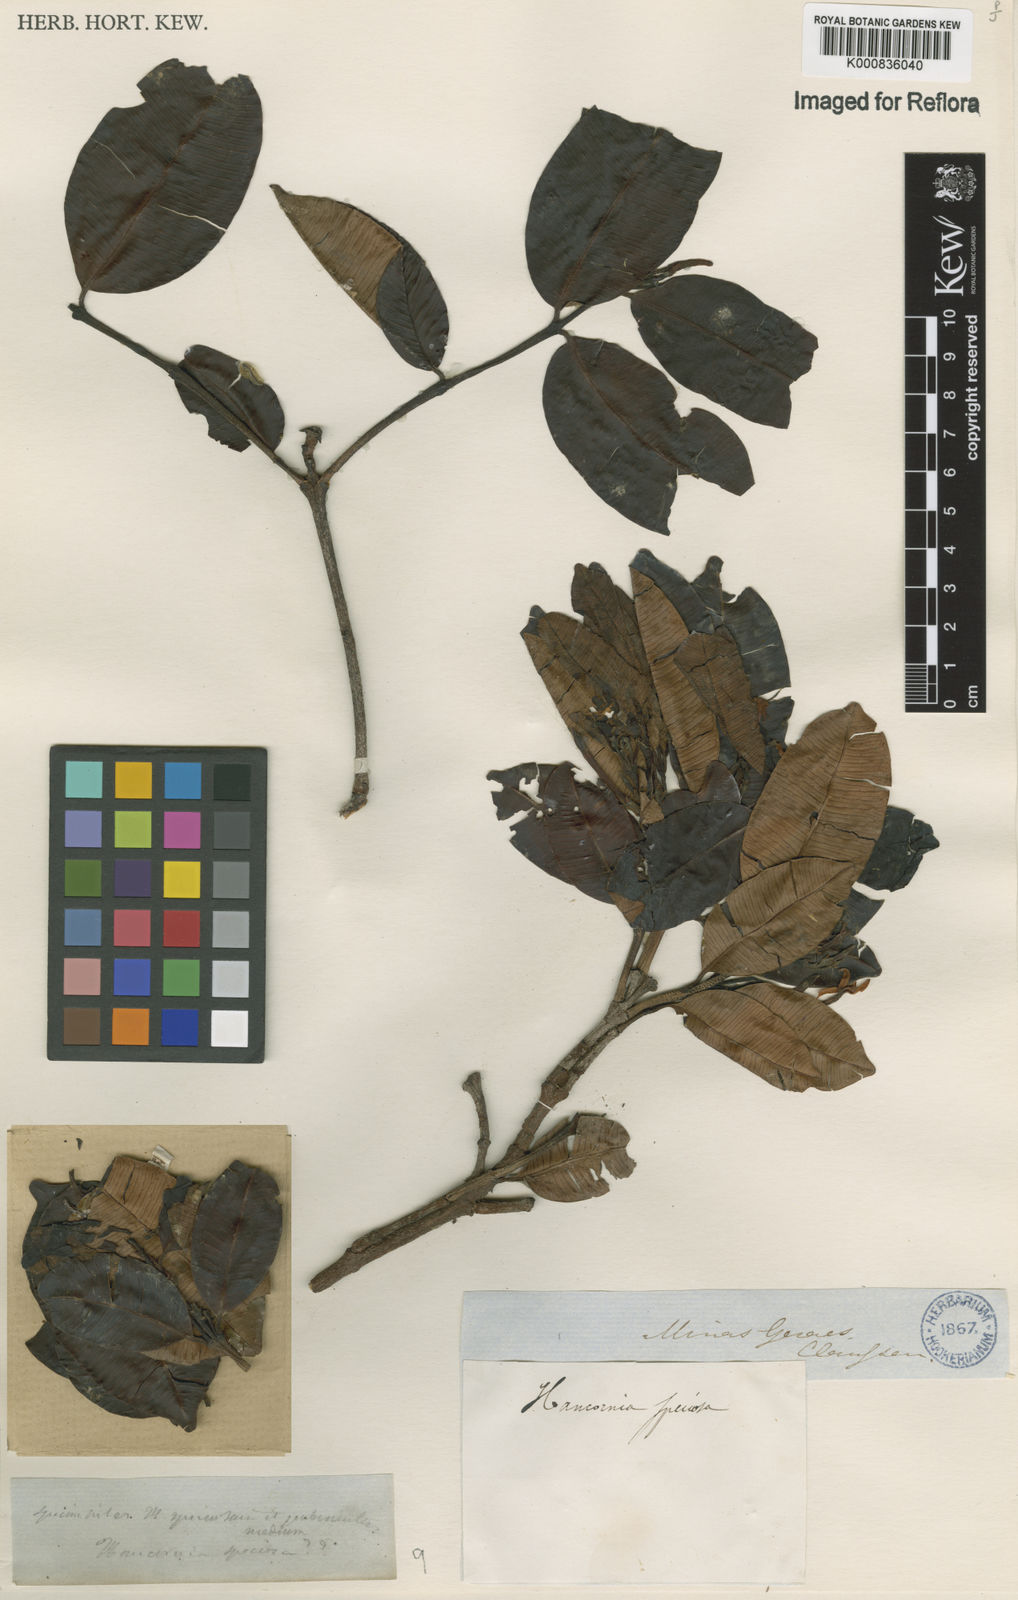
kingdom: Plantae
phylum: Tracheophyta
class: Magnoliopsida
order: Gentianales
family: Apocynaceae
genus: Hancornia
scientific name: Hancornia speciosa
